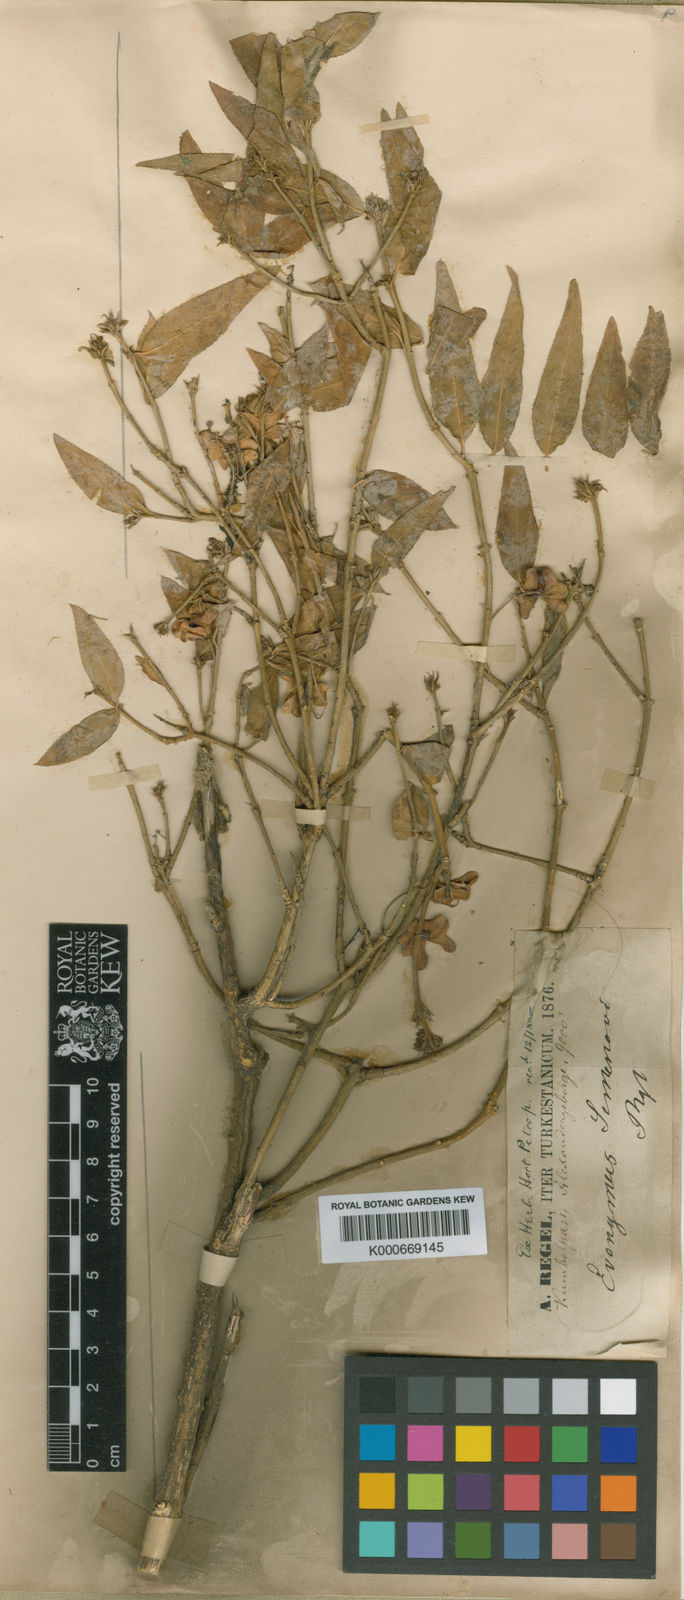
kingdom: Plantae
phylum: Tracheophyta
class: Magnoliopsida
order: Celastrales
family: Celastraceae
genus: Euonymus
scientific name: Euonymus semenovii
